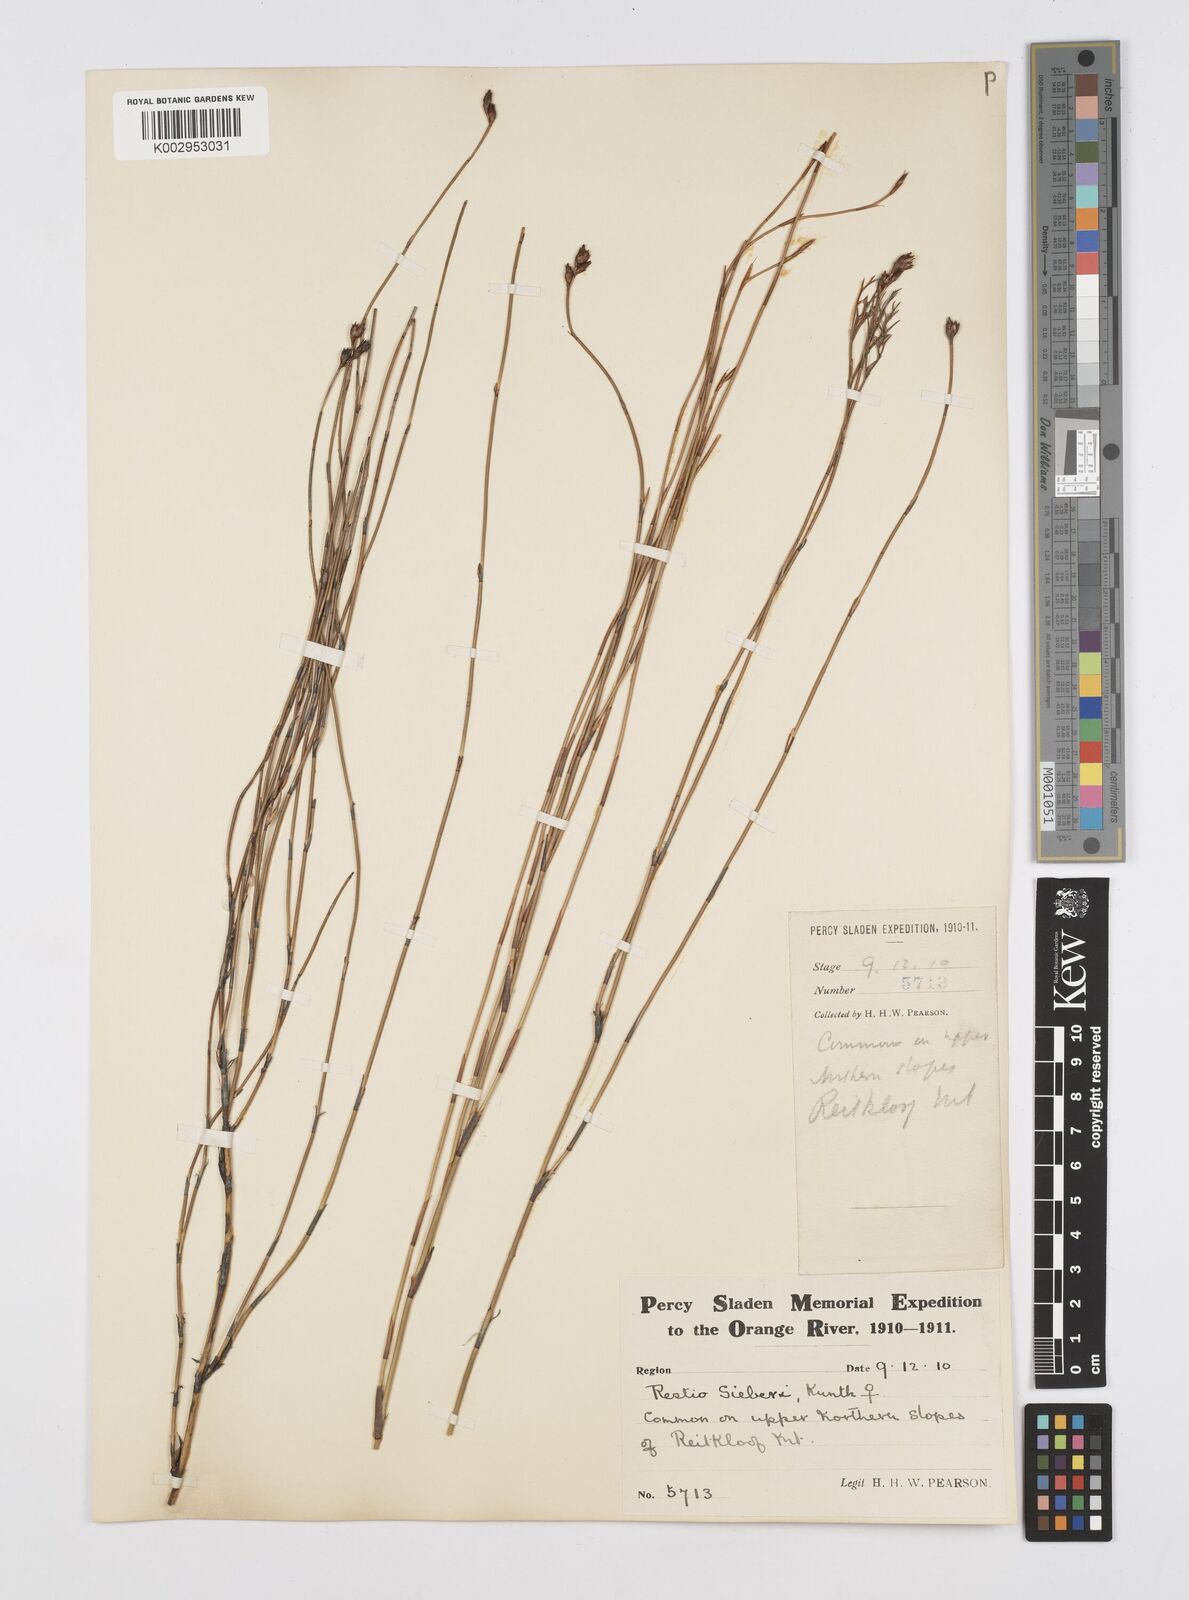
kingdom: Plantae
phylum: Tracheophyta
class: Liliopsida
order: Poales
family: Restionaceae
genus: Restio
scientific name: Restio sieberi
